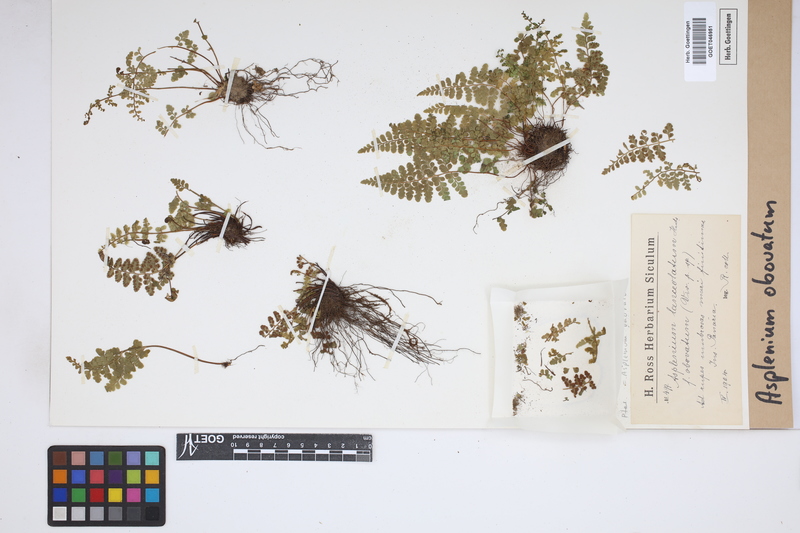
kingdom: Plantae
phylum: Tracheophyta
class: Polypodiopsida
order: Polypodiales
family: Aspleniaceae
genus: Asplenium
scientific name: Asplenium obovatum
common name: Lanceolate spleenwort
